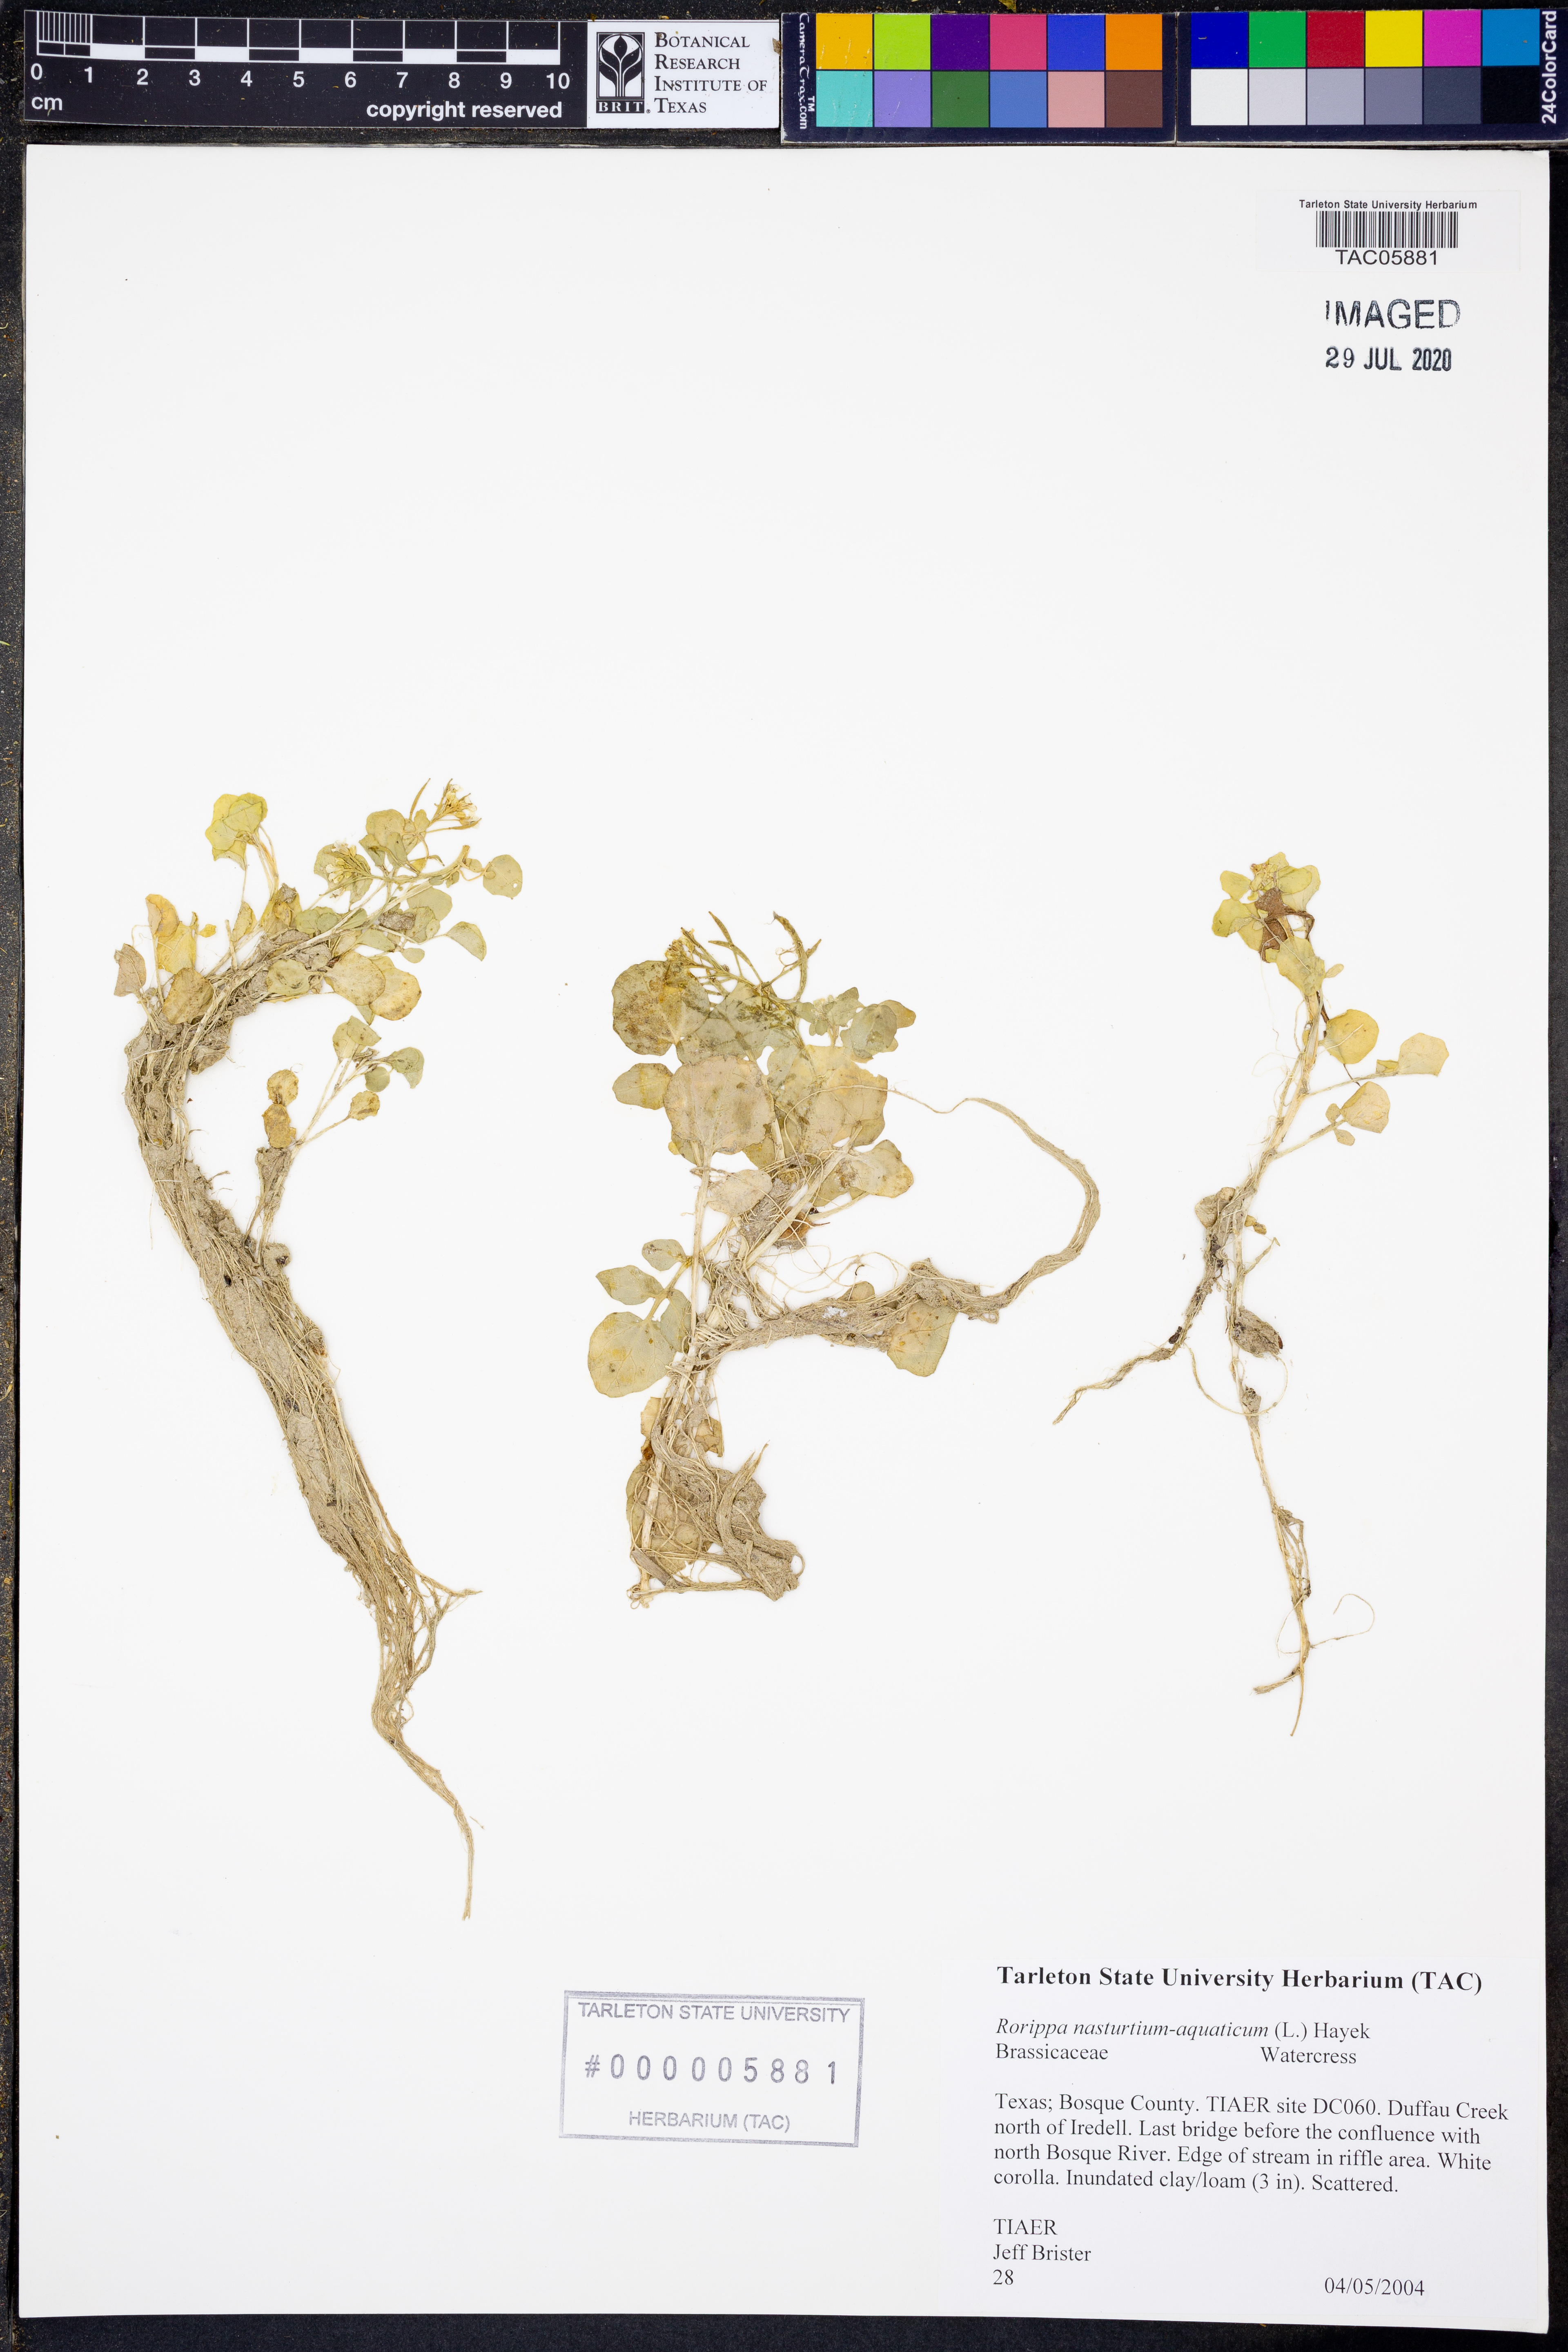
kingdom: Plantae
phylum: Tracheophyta
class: Magnoliopsida
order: Brassicales
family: Brassicaceae
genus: Nasturtium
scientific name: Nasturtium officinale
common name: Watercress
